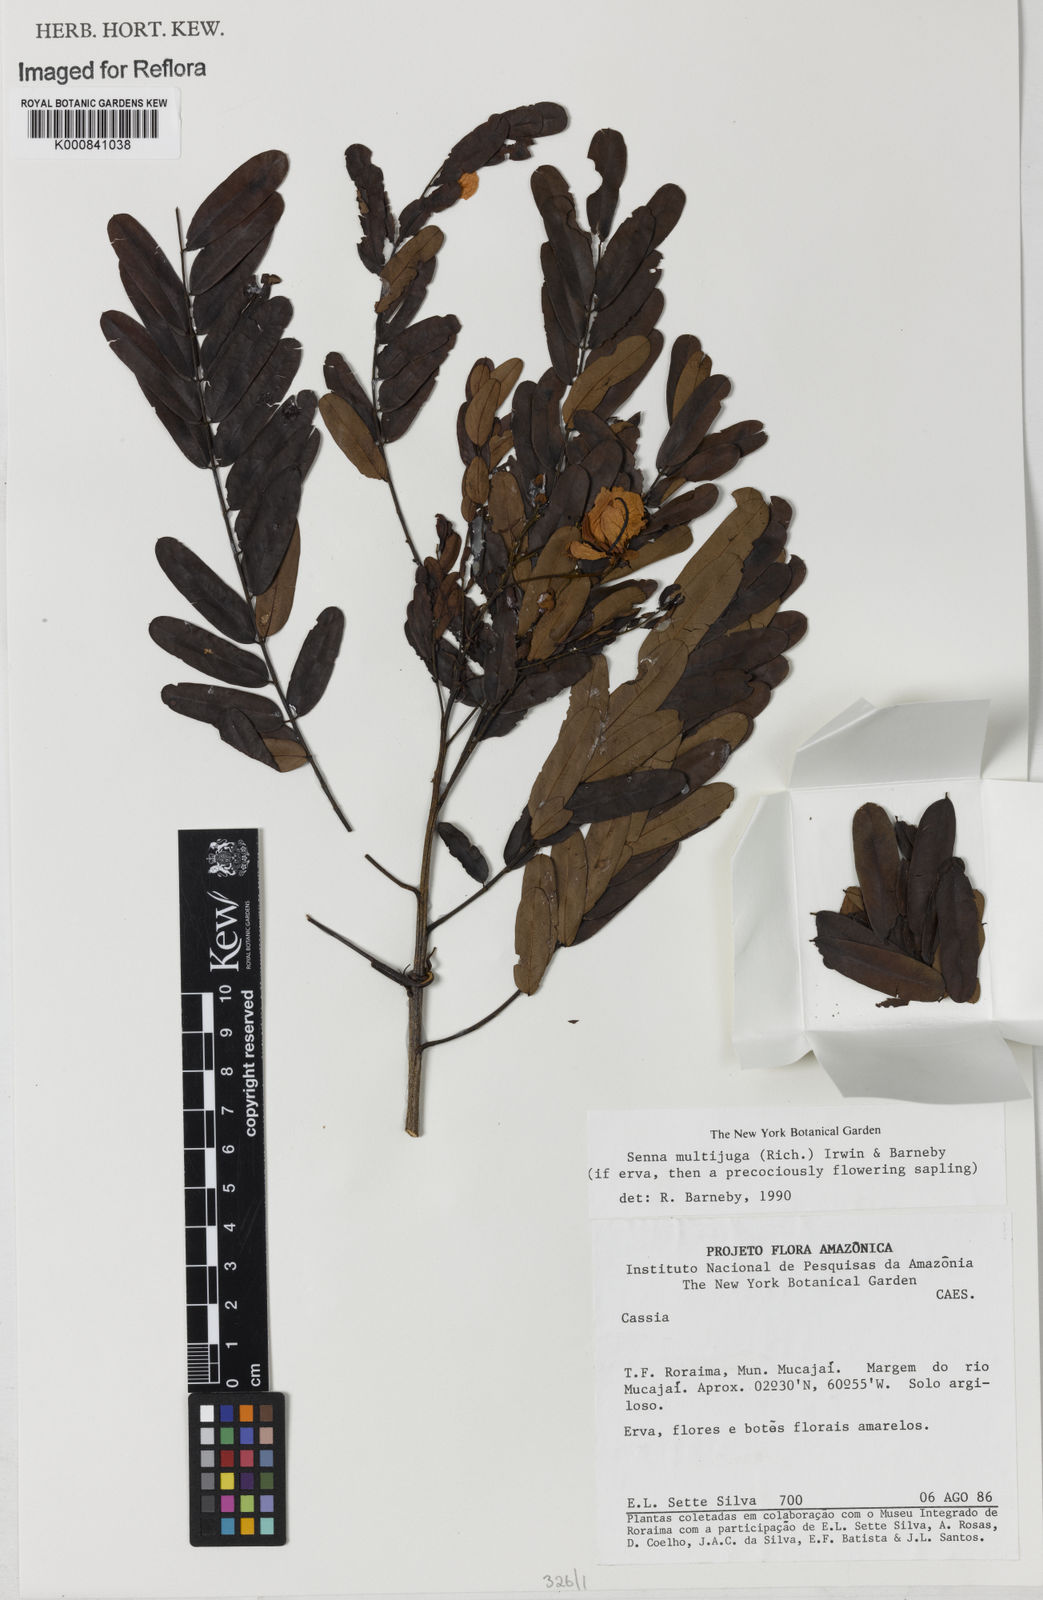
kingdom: Plantae
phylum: Tracheophyta
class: Magnoliopsida
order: Fabales
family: Fabaceae
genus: Senna
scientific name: Senna multijuga
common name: False sicklepod
